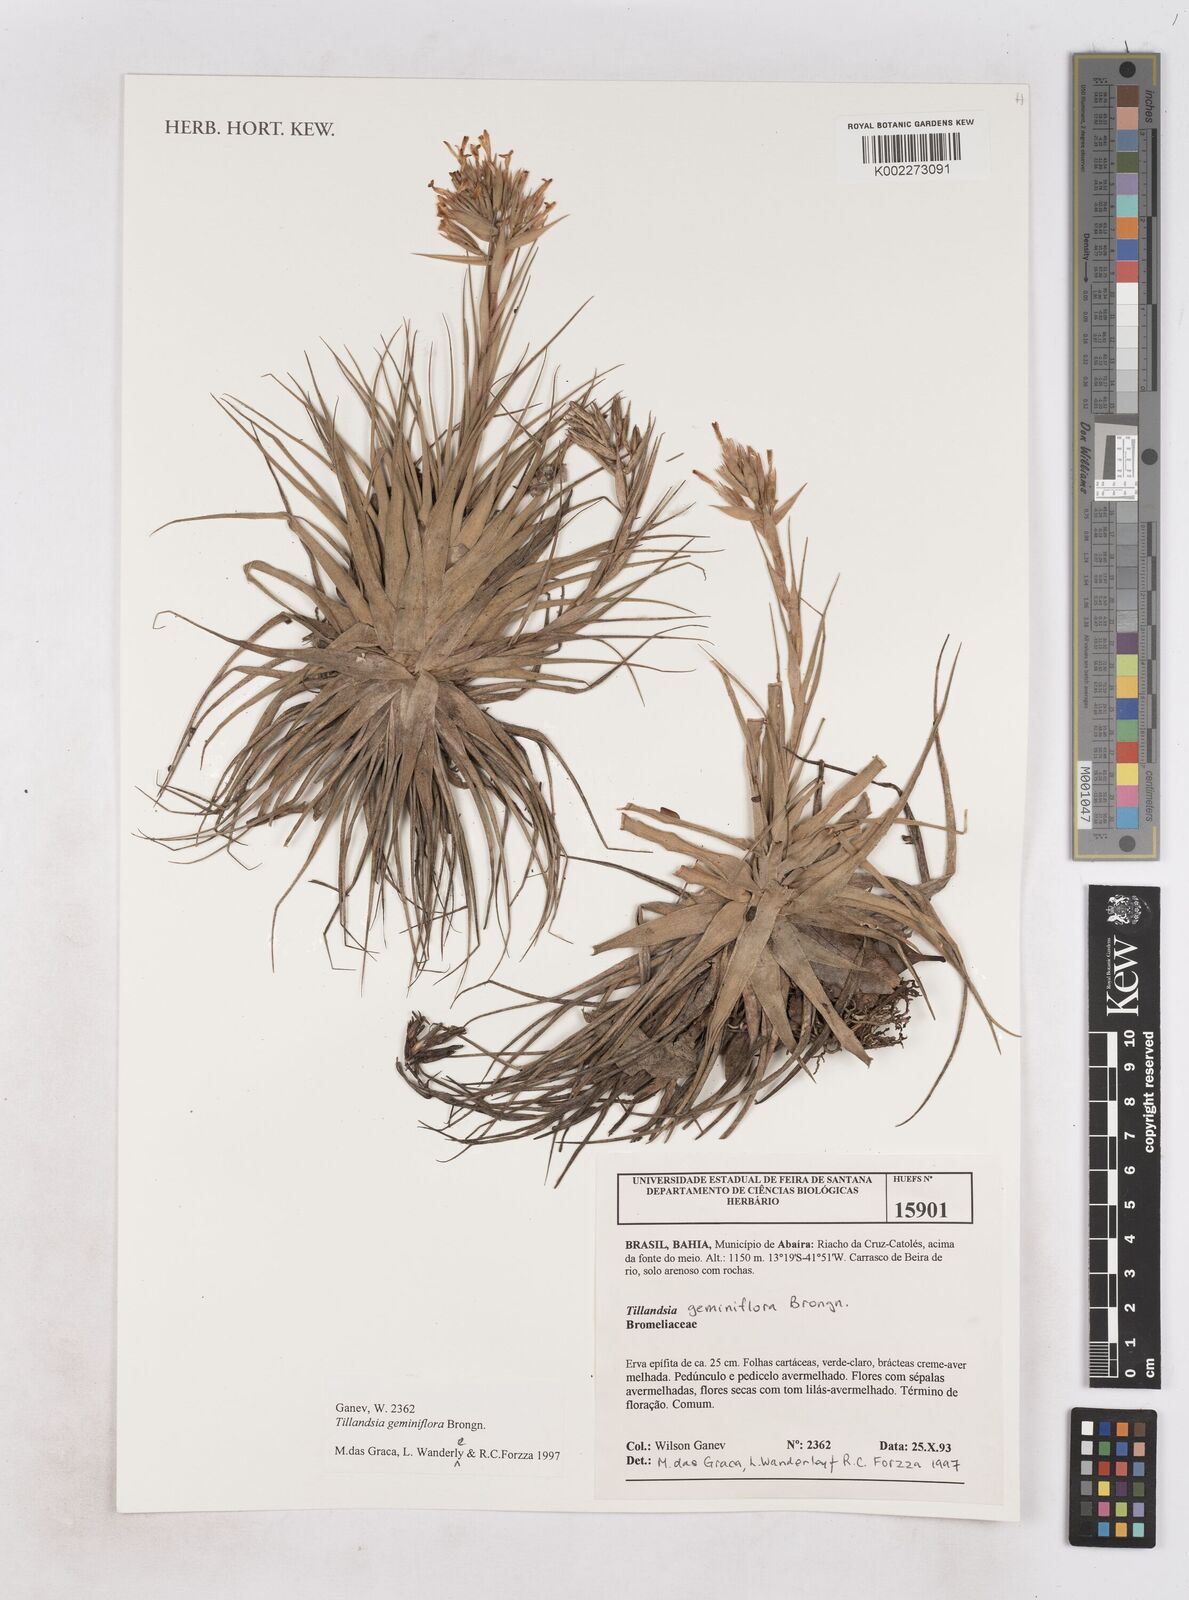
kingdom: Plantae
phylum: Tracheophyta
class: Liliopsida
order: Poales
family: Bromeliaceae
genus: Tillandsia
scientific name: Tillandsia geminiflora
